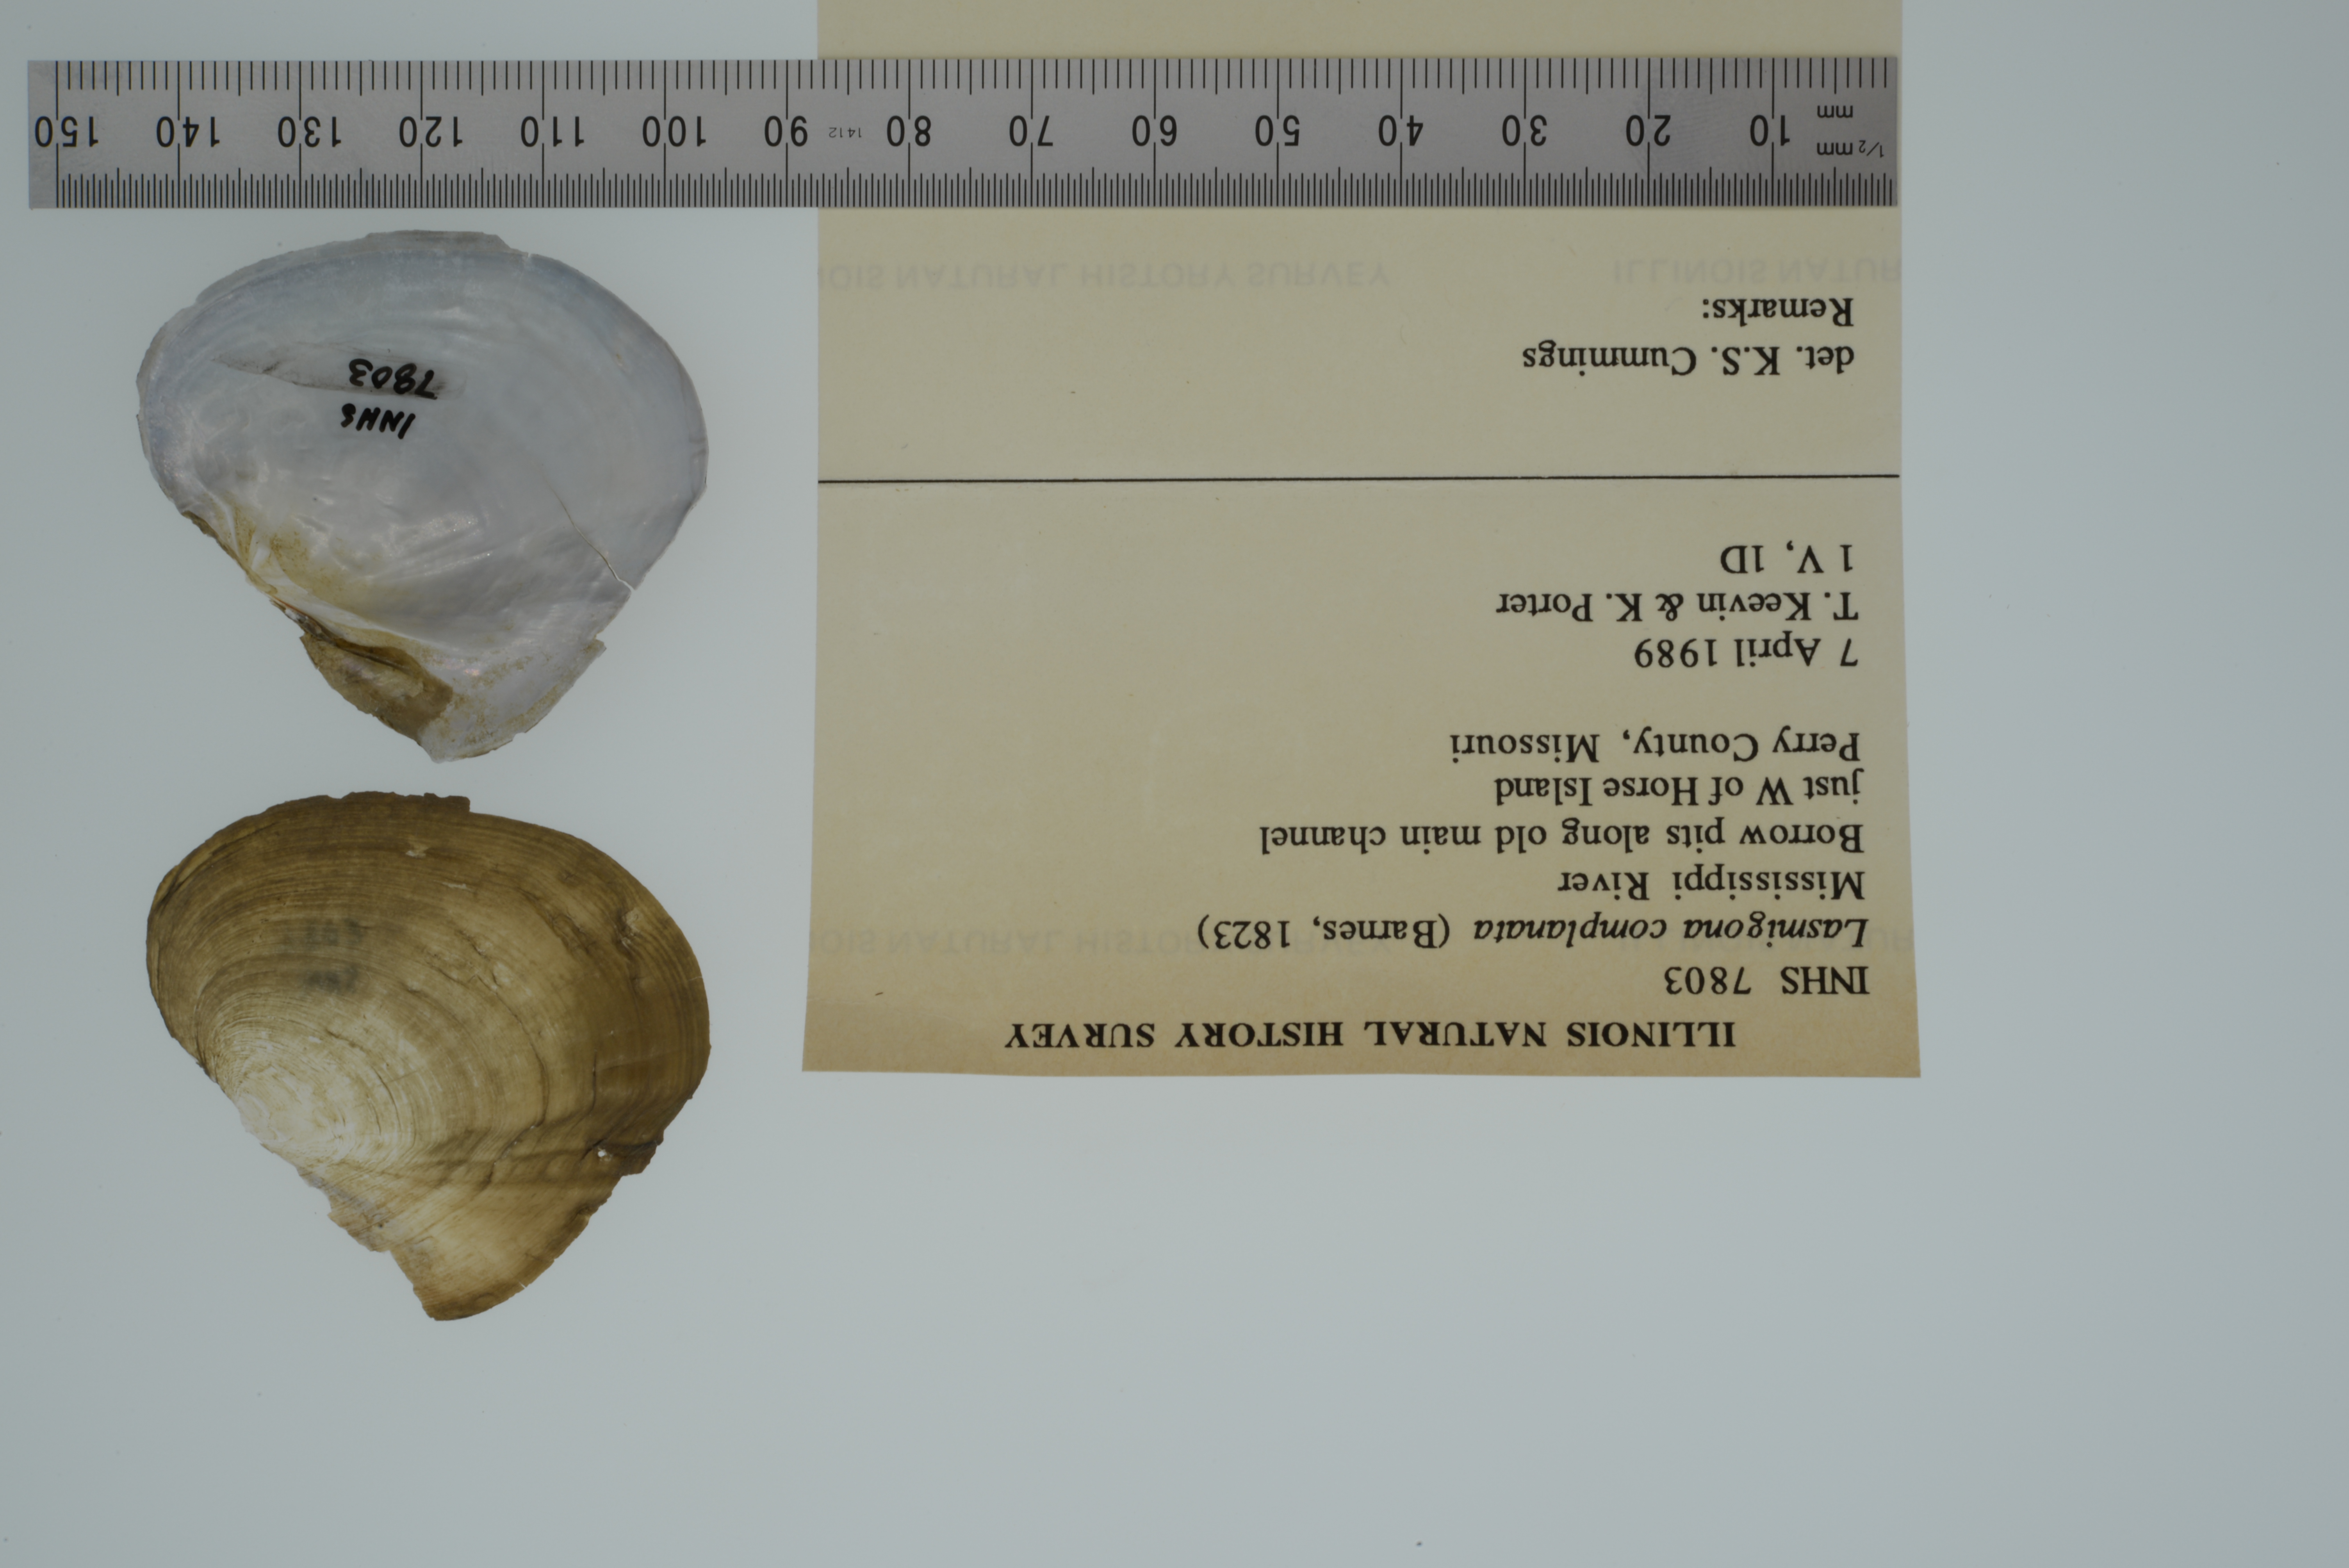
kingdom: Animalia
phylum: Mollusca
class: Bivalvia
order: Unionida
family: Unionidae
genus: Lasmigona
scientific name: Lasmigona complanata
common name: White heelsplitter
